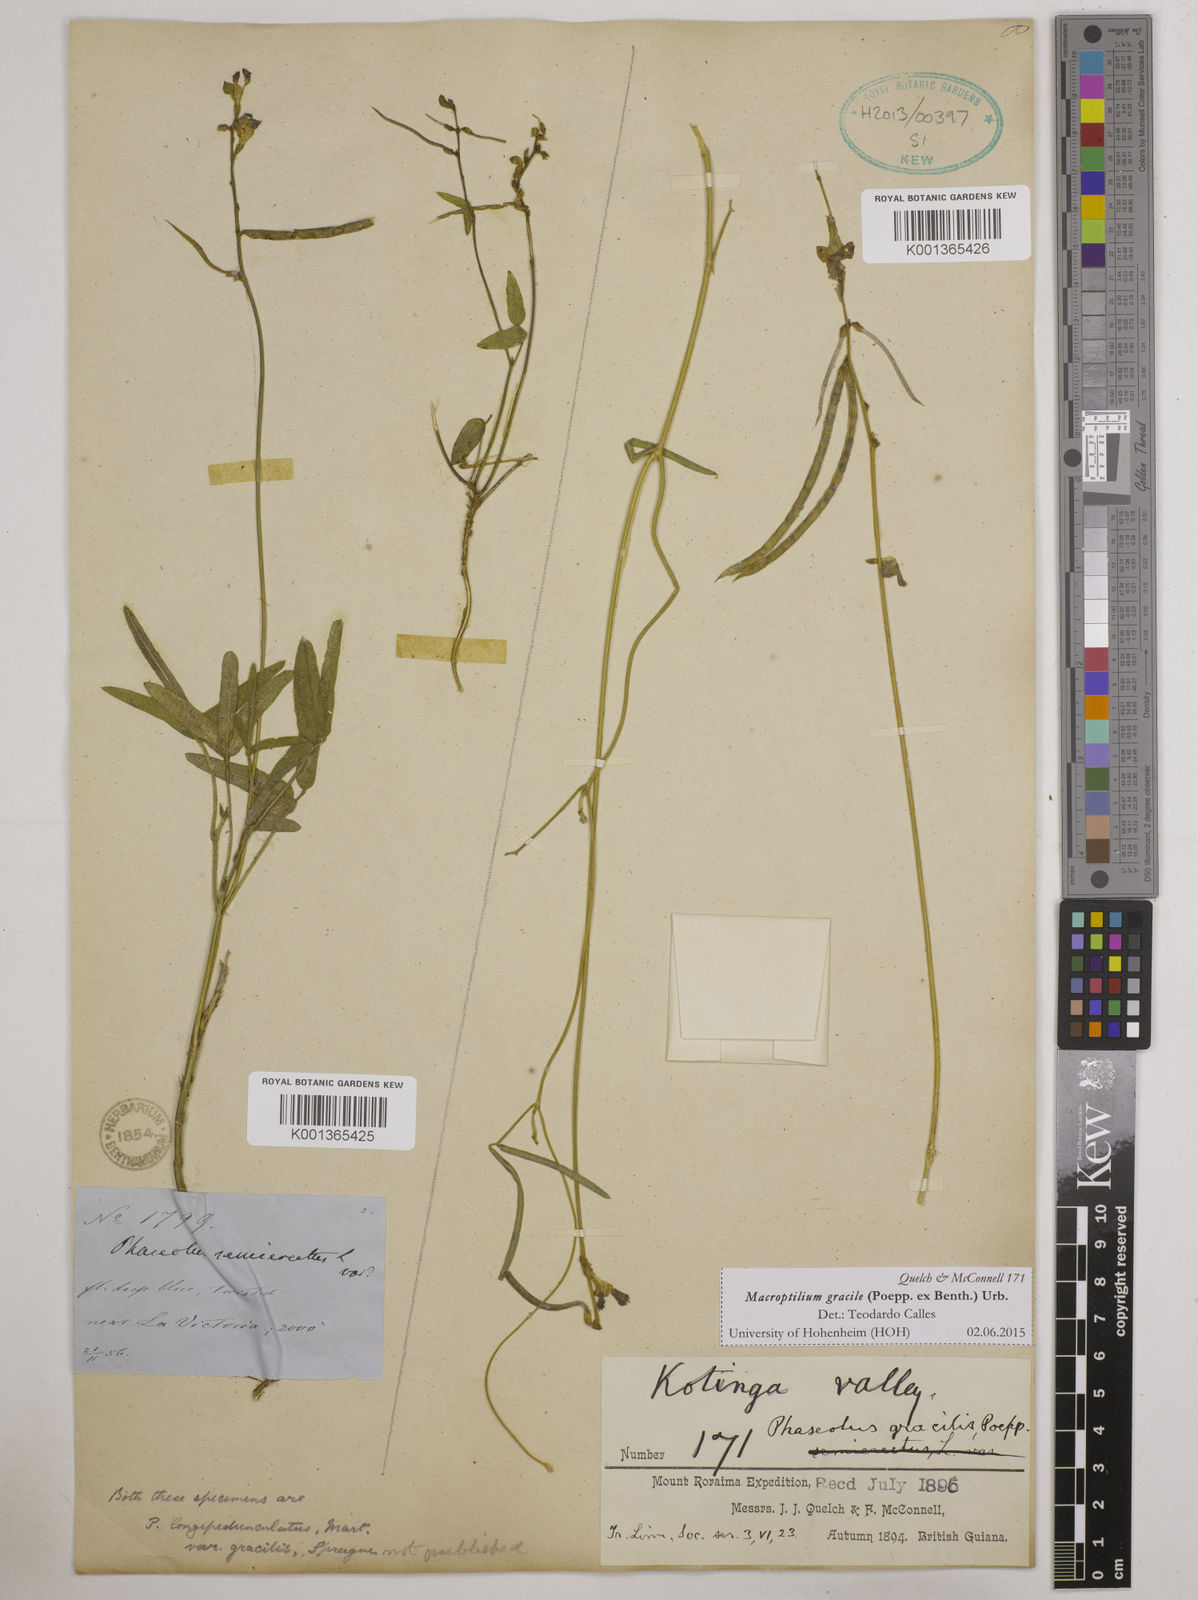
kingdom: Plantae
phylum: Tracheophyta
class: Magnoliopsida
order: Fabales
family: Fabaceae
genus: Macroptilium
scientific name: Macroptilium gracile
